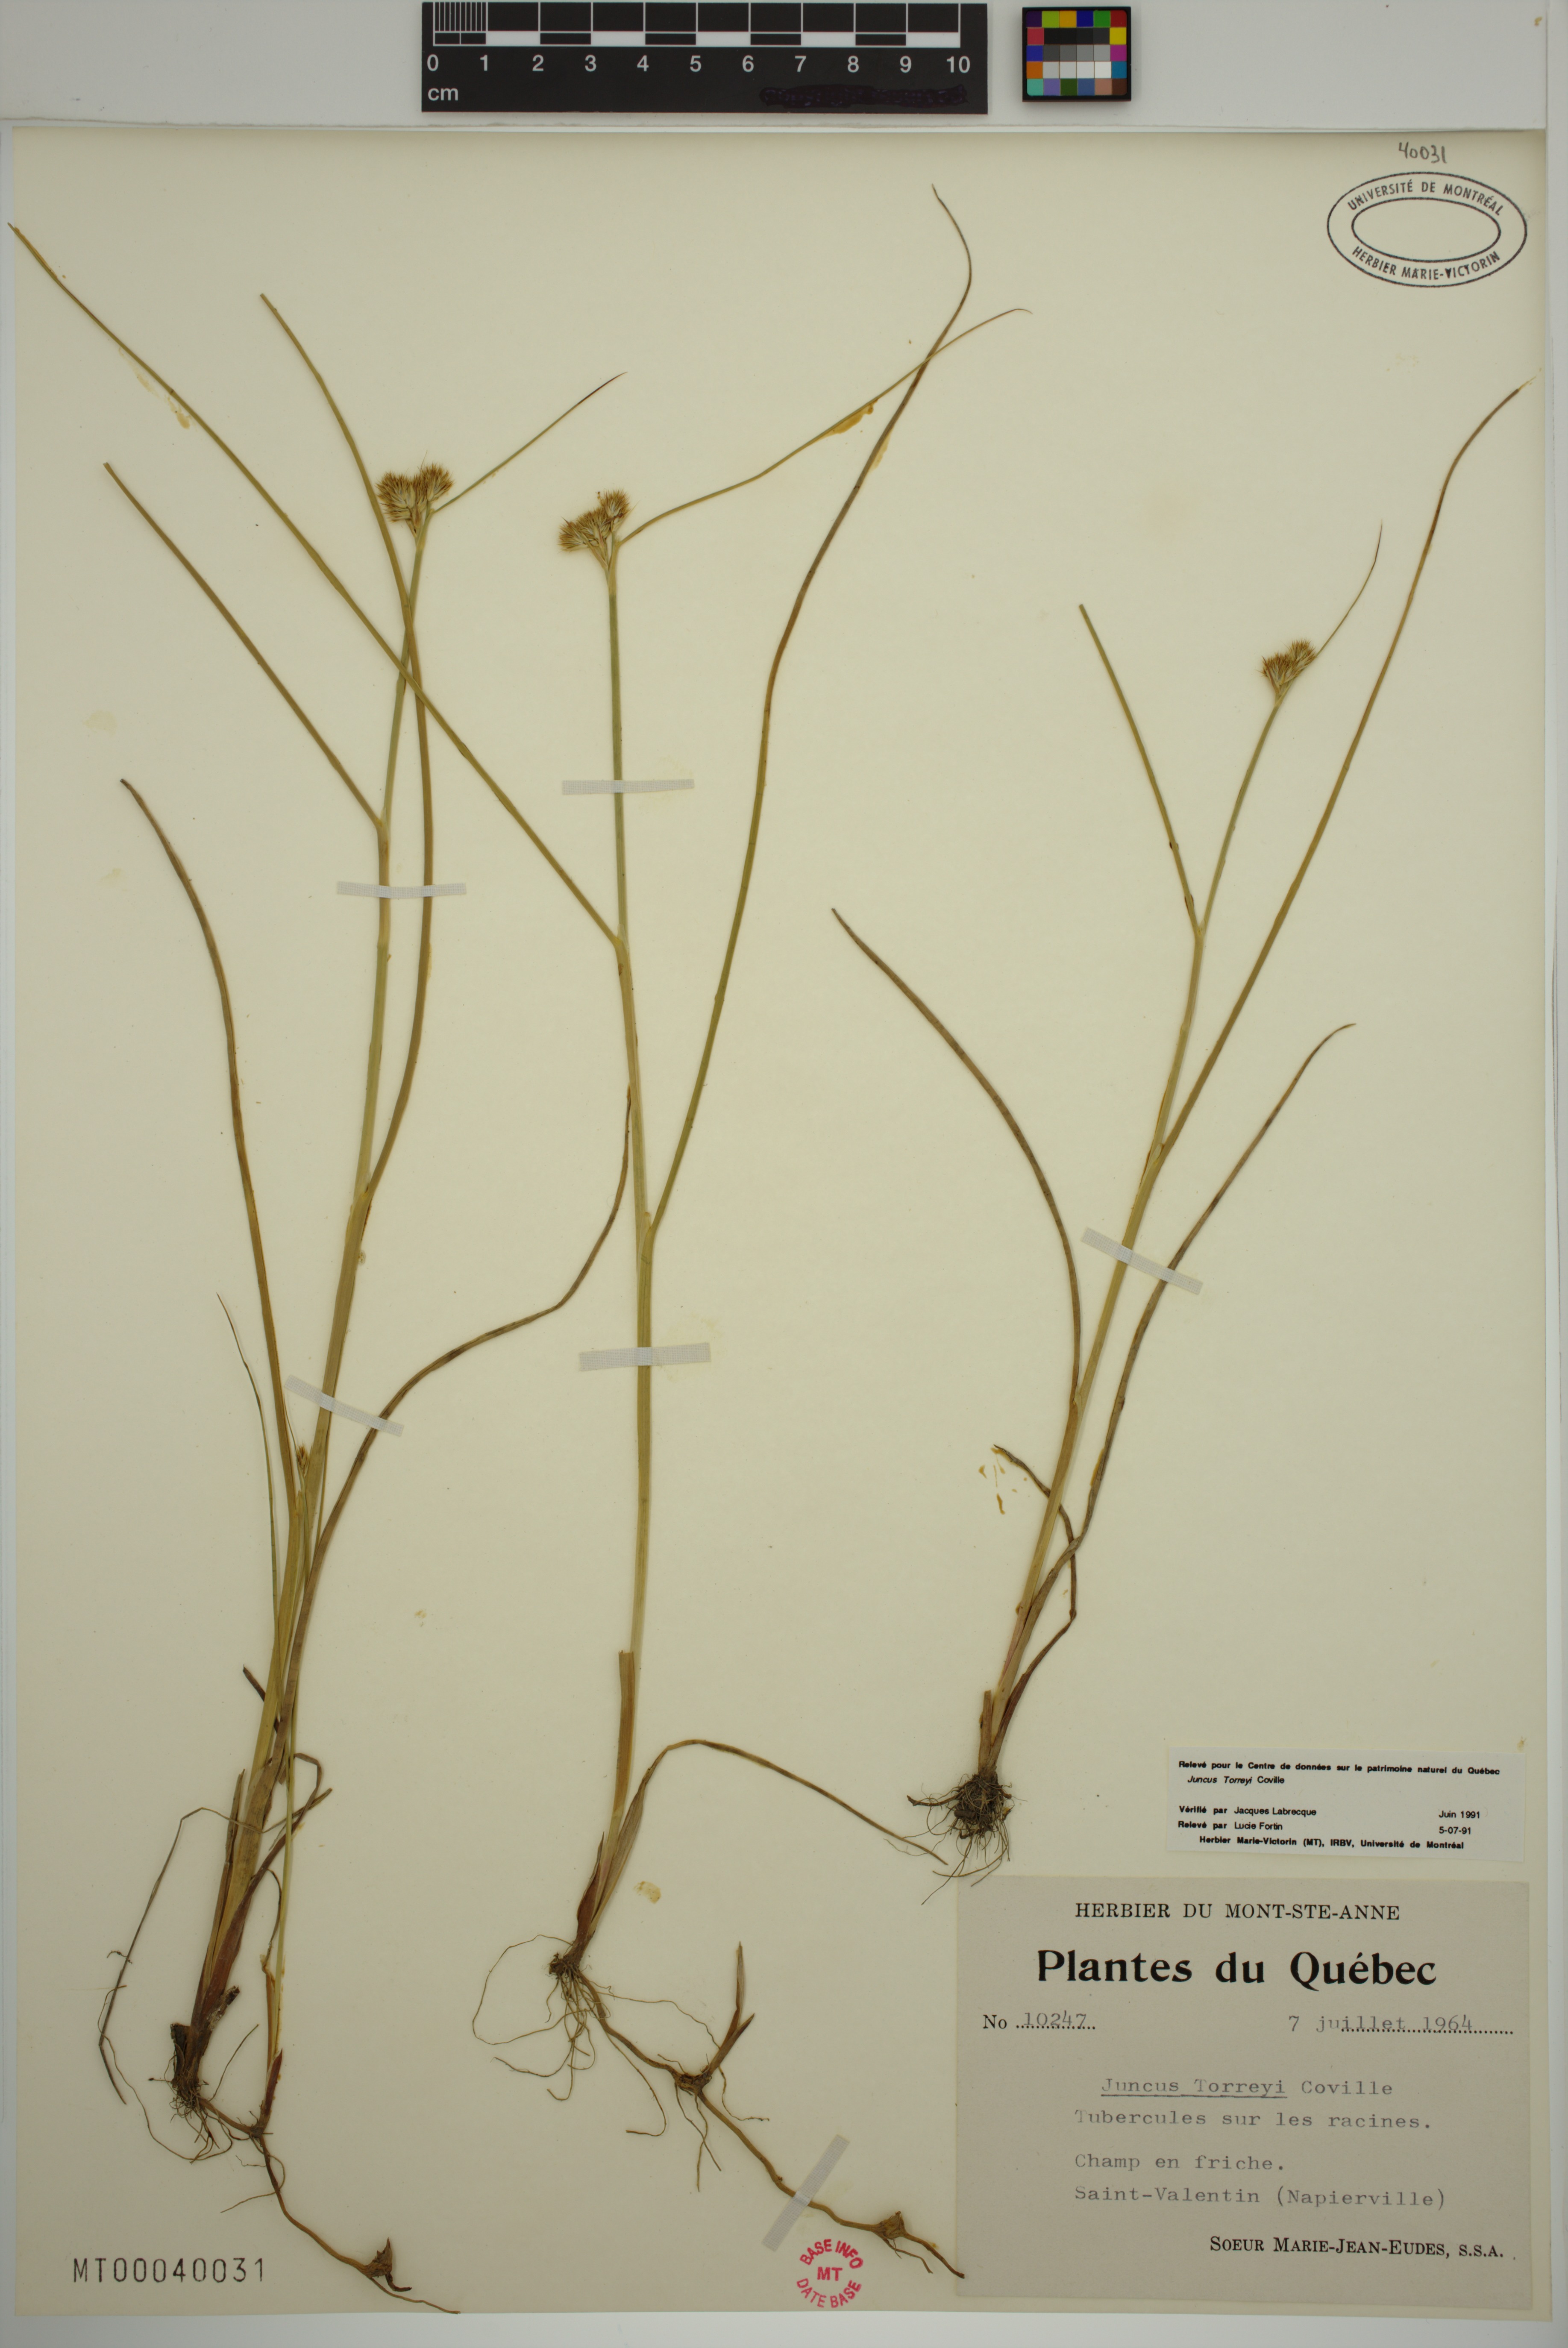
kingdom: Plantae
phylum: Tracheophyta
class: Liliopsida
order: Poales
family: Juncaceae
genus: Juncus
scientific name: Juncus torreyi
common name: Torrey's rush
